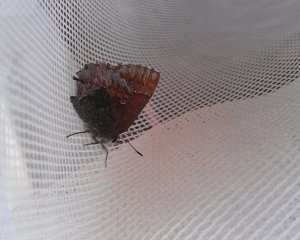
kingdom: Animalia
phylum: Arthropoda
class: Insecta
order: Lepidoptera
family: Lycaenidae
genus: Callophrys
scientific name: Callophrys polios
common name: Hoary Elfin
